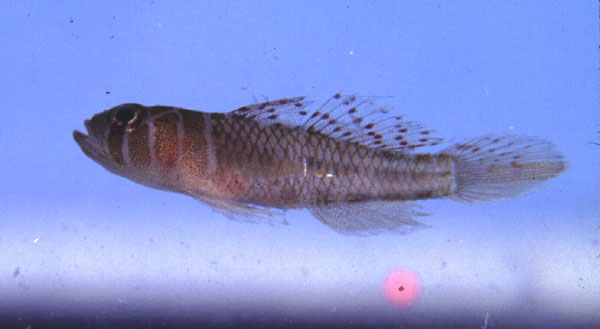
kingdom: Animalia
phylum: Chordata
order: Perciformes
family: Gobiidae
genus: Priolepis
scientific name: Priolepis inhaca
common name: Brick goby
